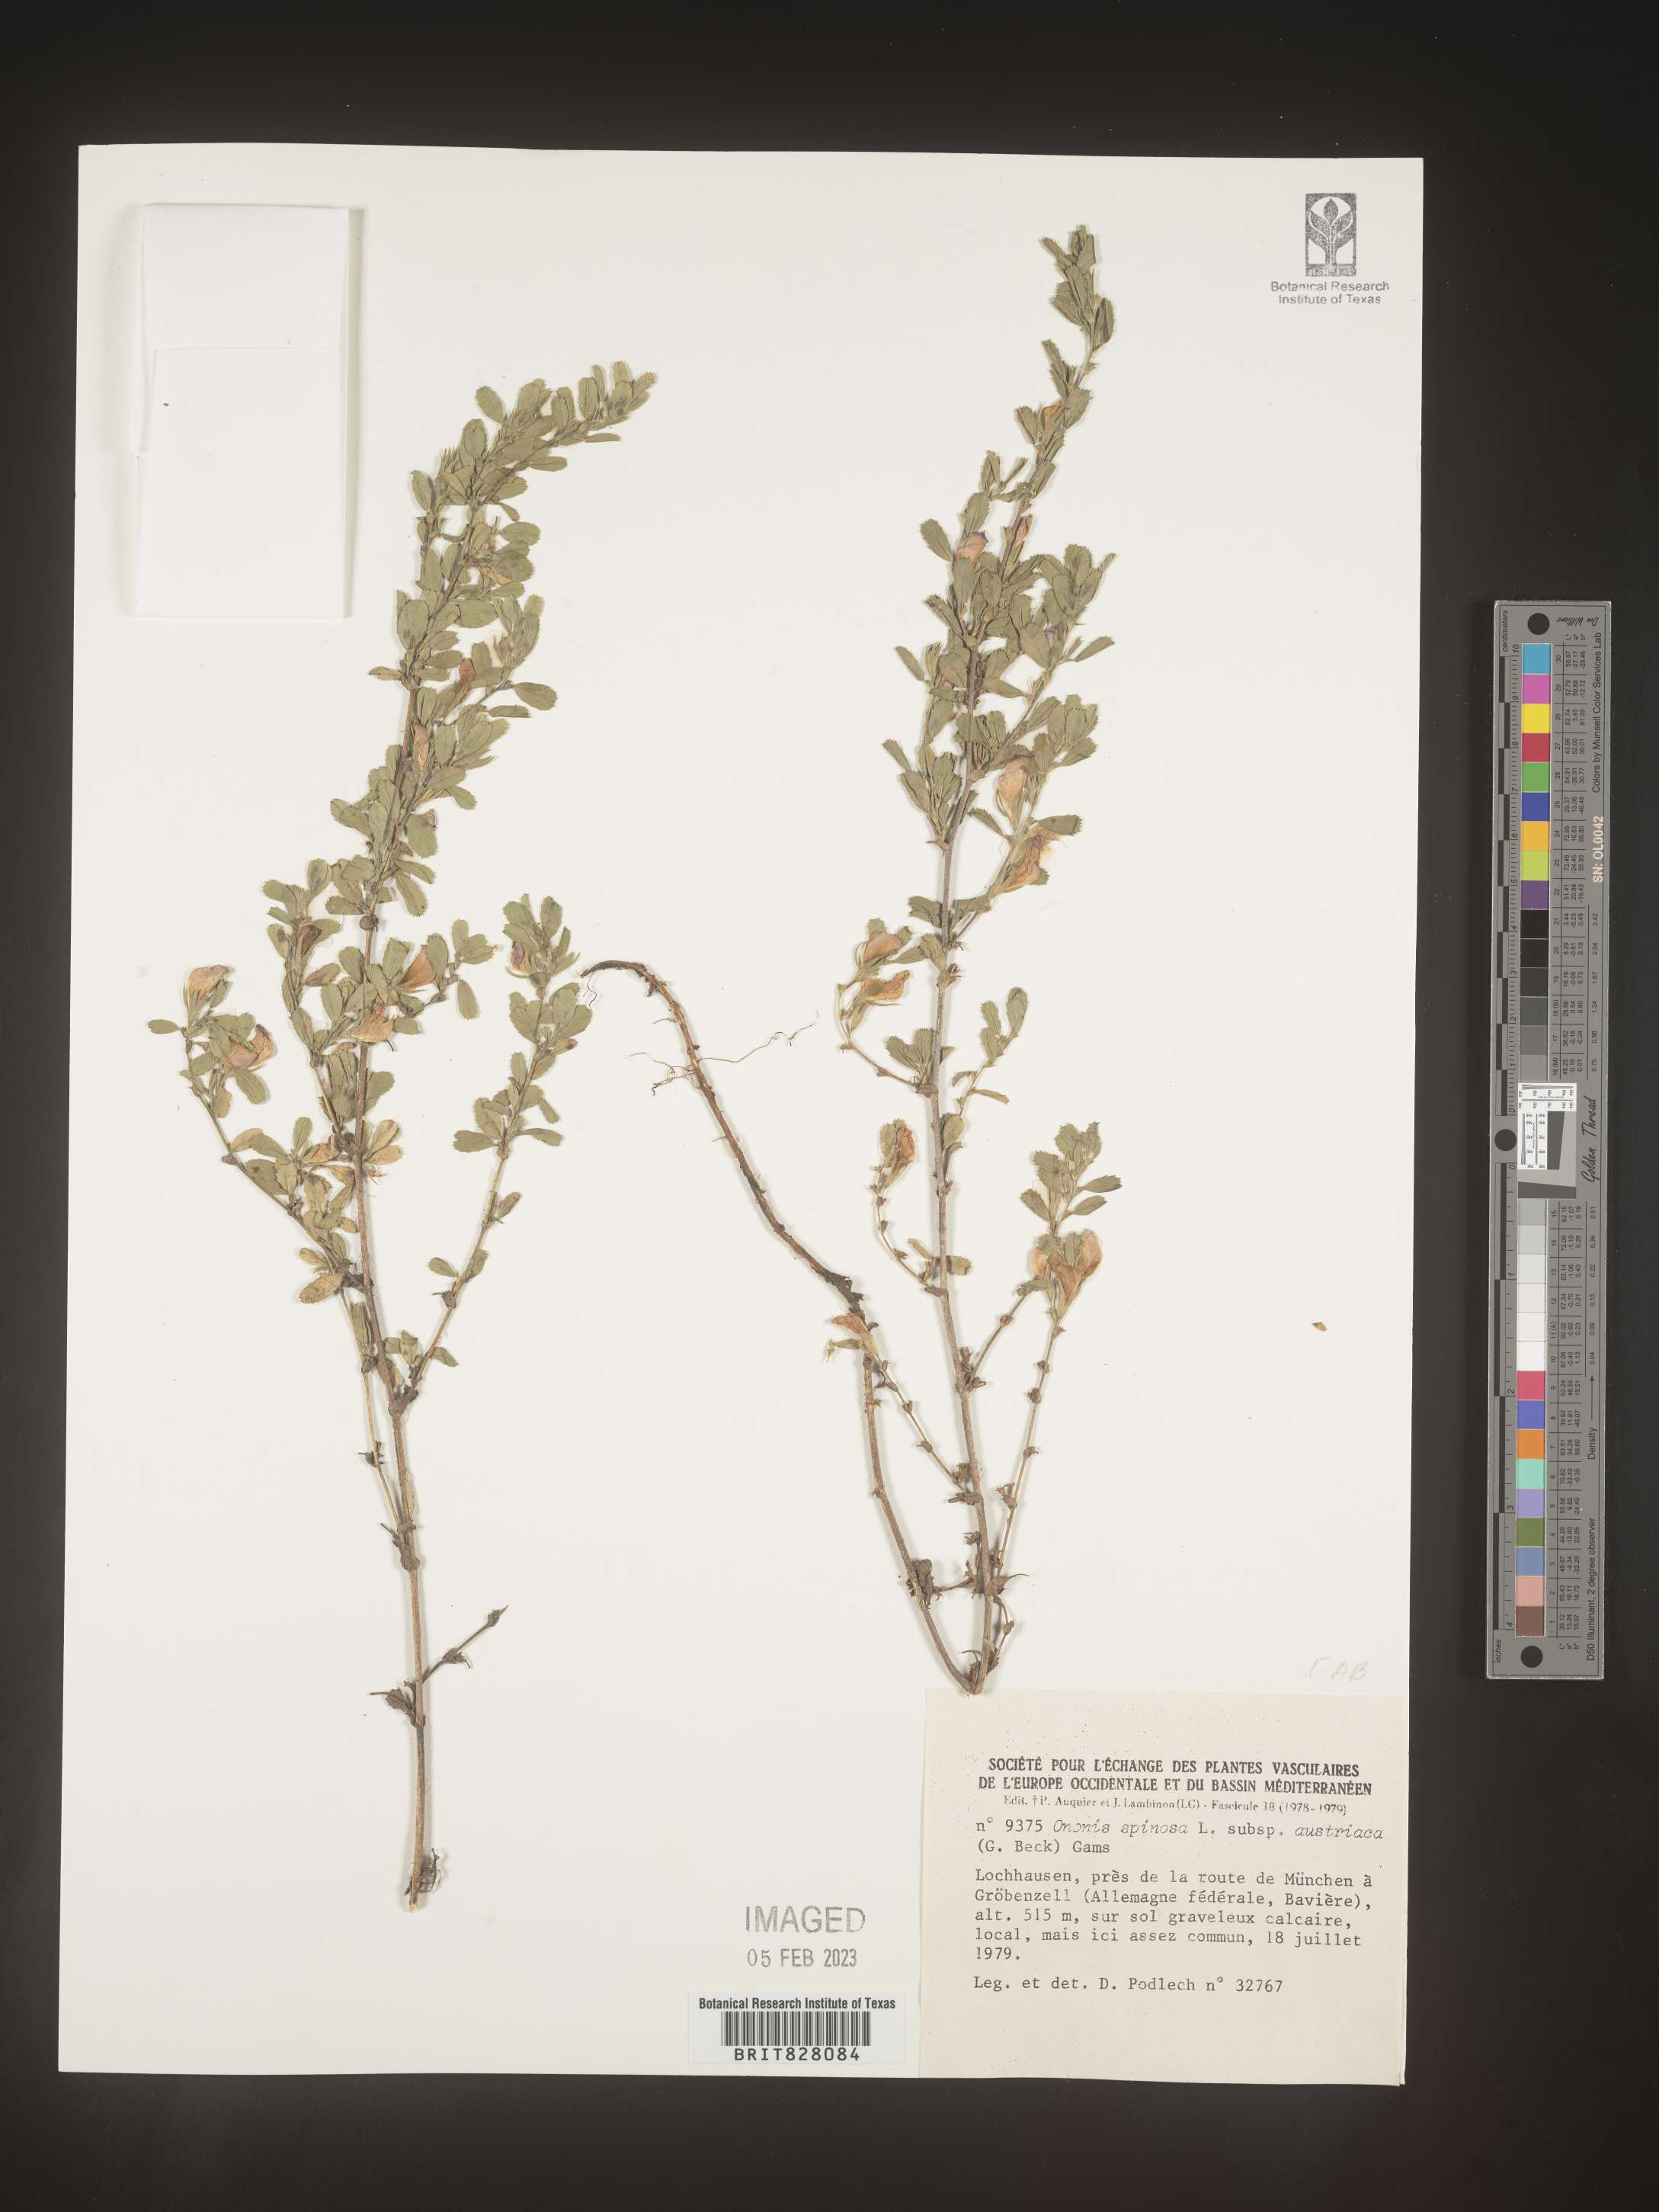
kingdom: Plantae
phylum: Tracheophyta
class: Magnoliopsida
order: Fabales
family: Fabaceae
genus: Ononis
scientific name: Ononis
